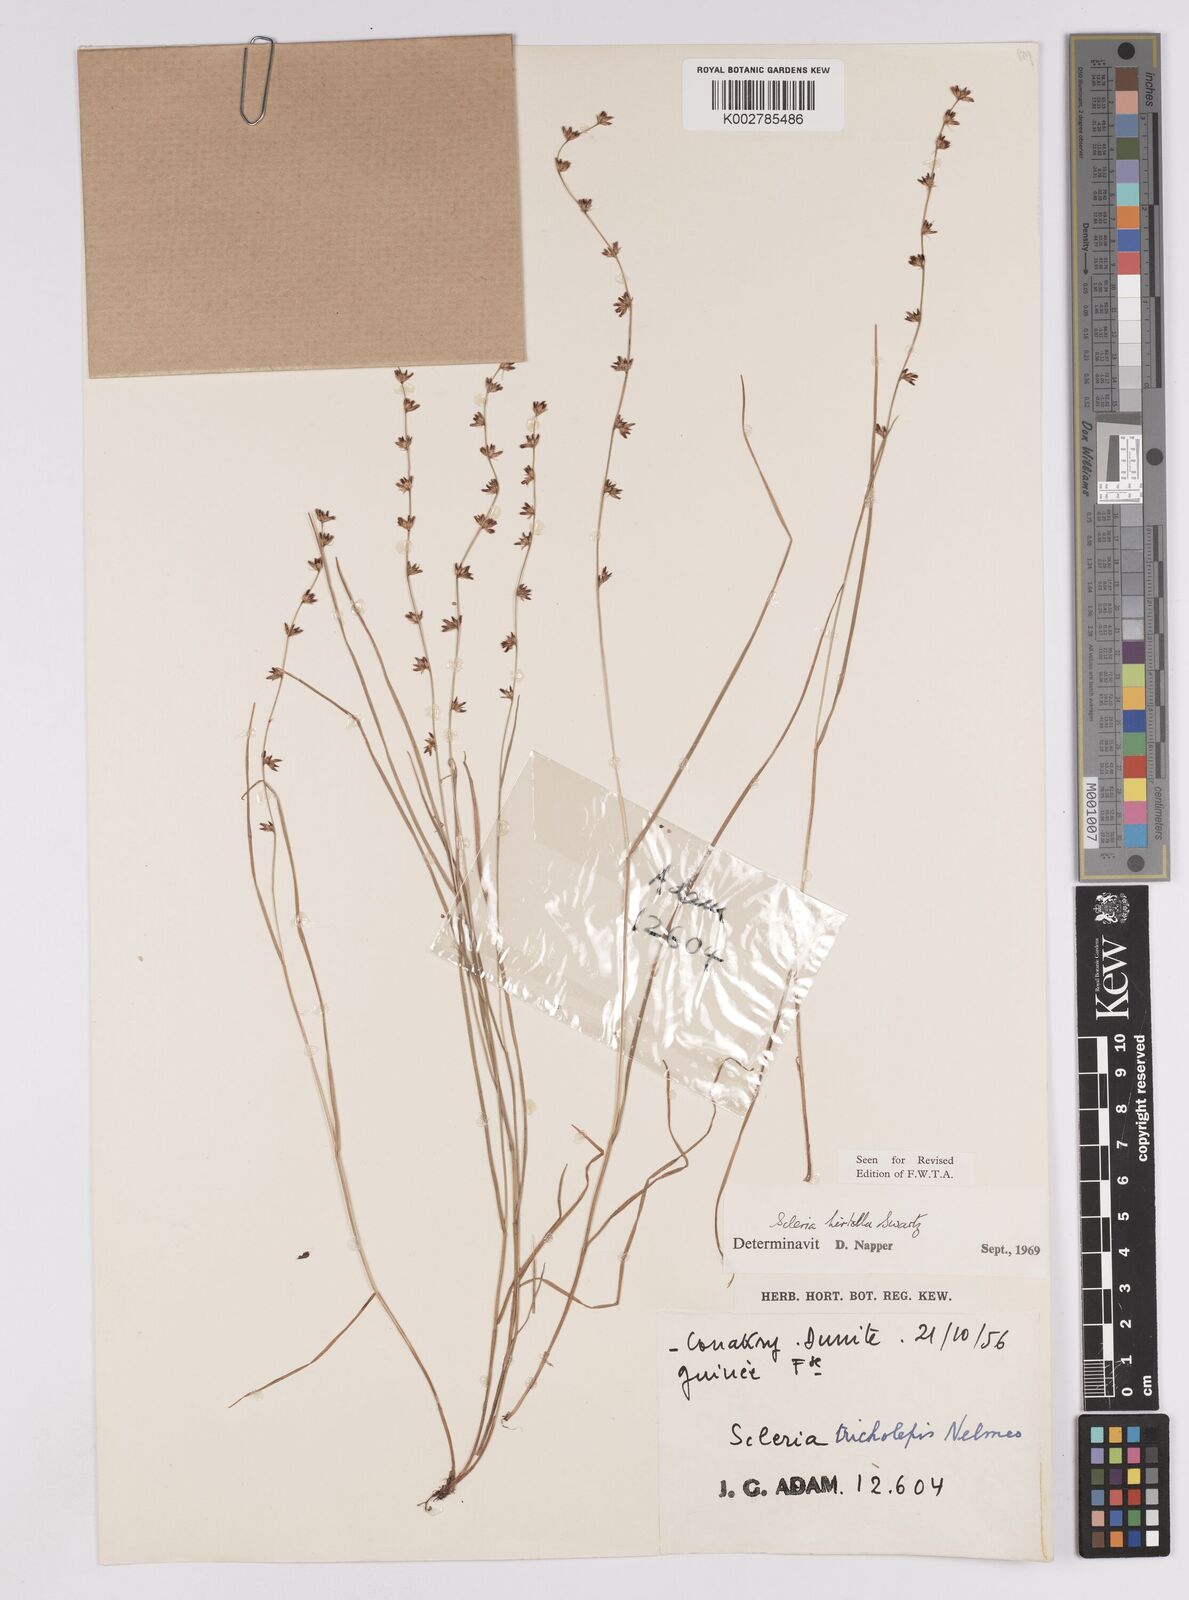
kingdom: Plantae
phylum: Tracheophyta
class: Liliopsida
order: Poales
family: Cyperaceae
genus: Scleria
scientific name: Scleria tricholepis
